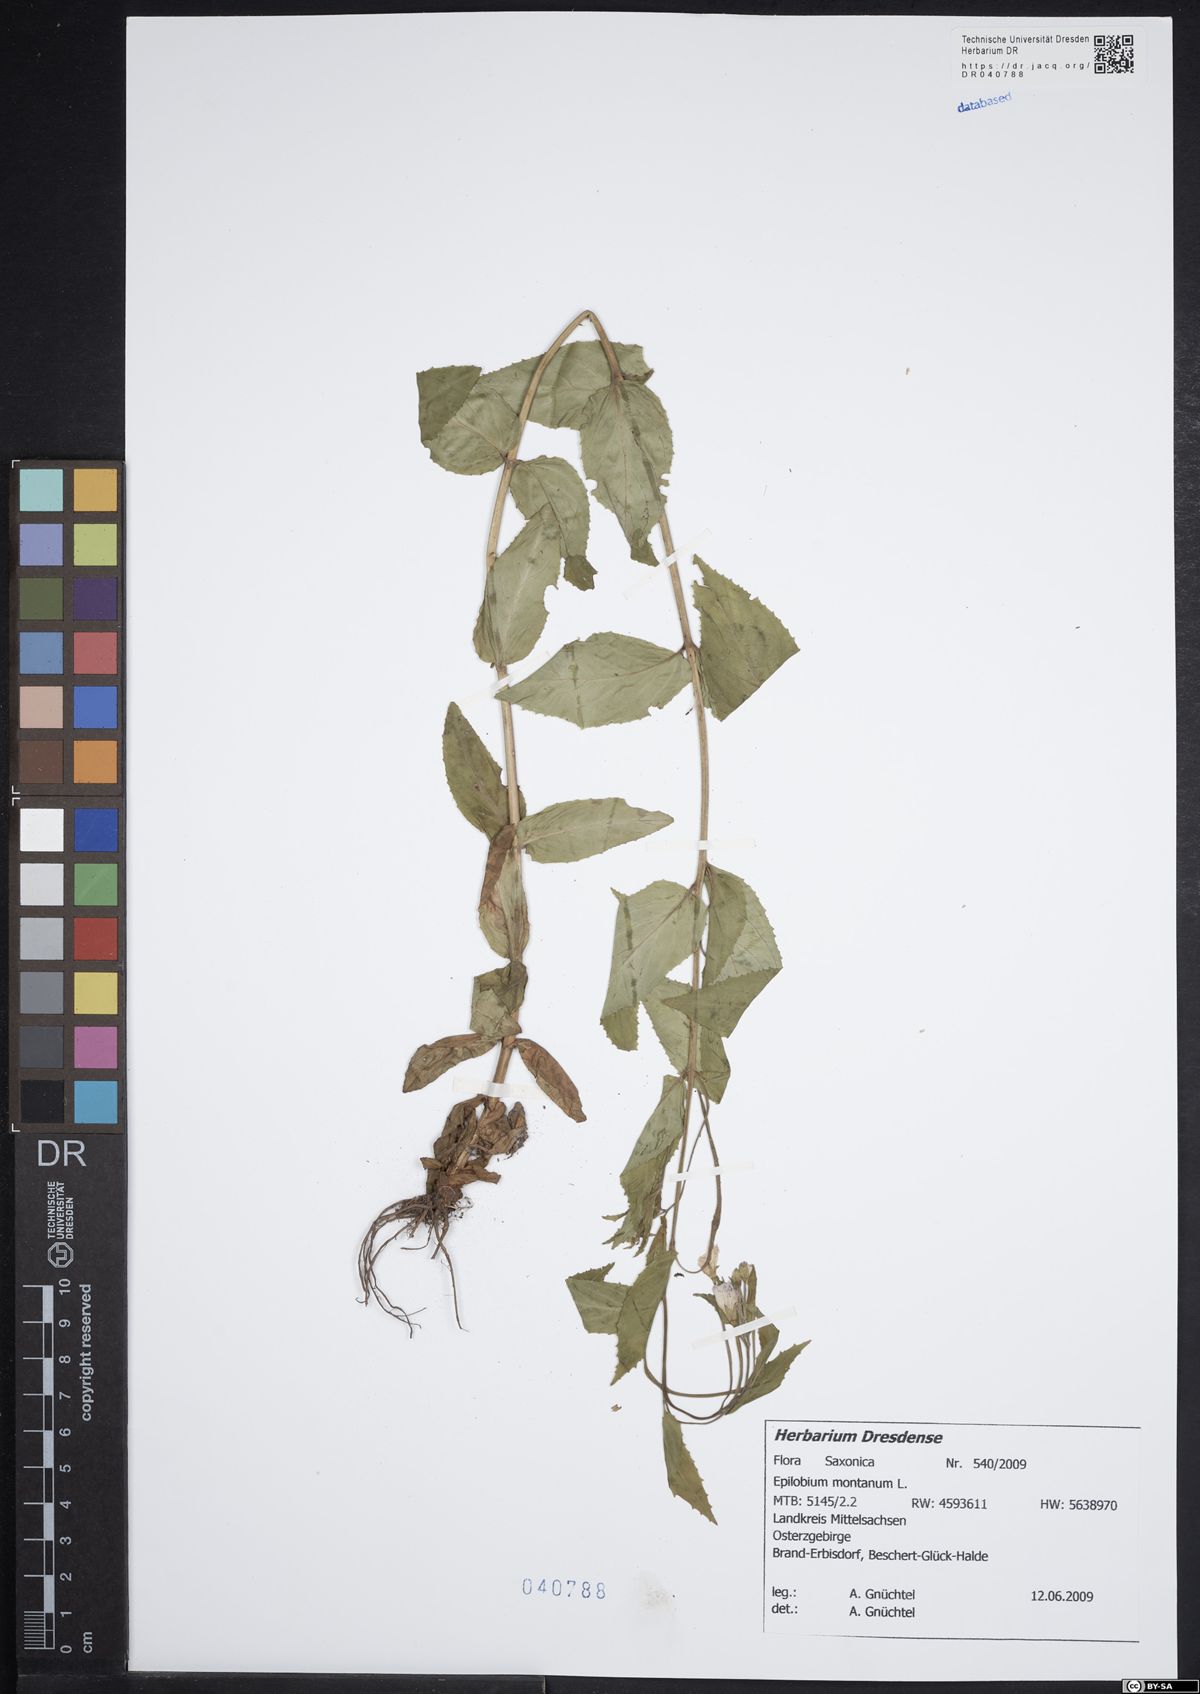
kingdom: Plantae
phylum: Tracheophyta
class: Magnoliopsida
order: Myrtales
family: Onagraceae
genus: Epilobium
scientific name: Epilobium montanum
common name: Broad-leaved willowherb
